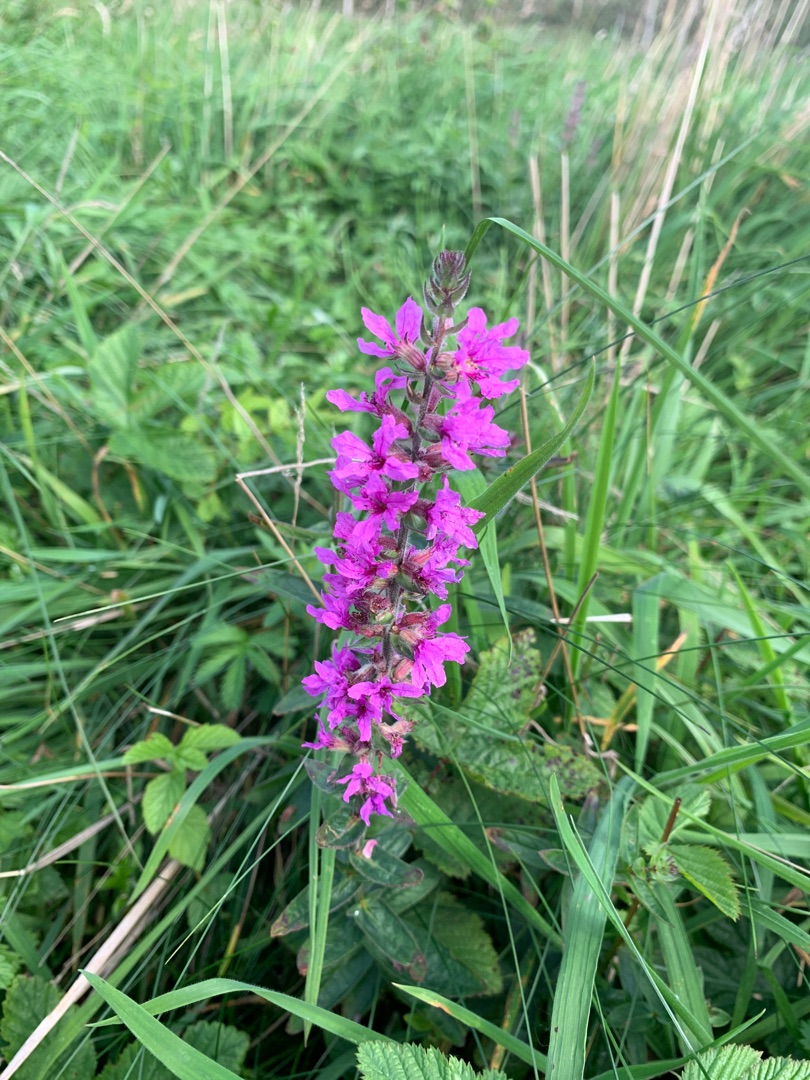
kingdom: Plantae
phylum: Tracheophyta
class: Magnoliopsida
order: Myrtales
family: Lythraceae
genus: Lythrum
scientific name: Lythrum salicaria
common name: Kattehale
